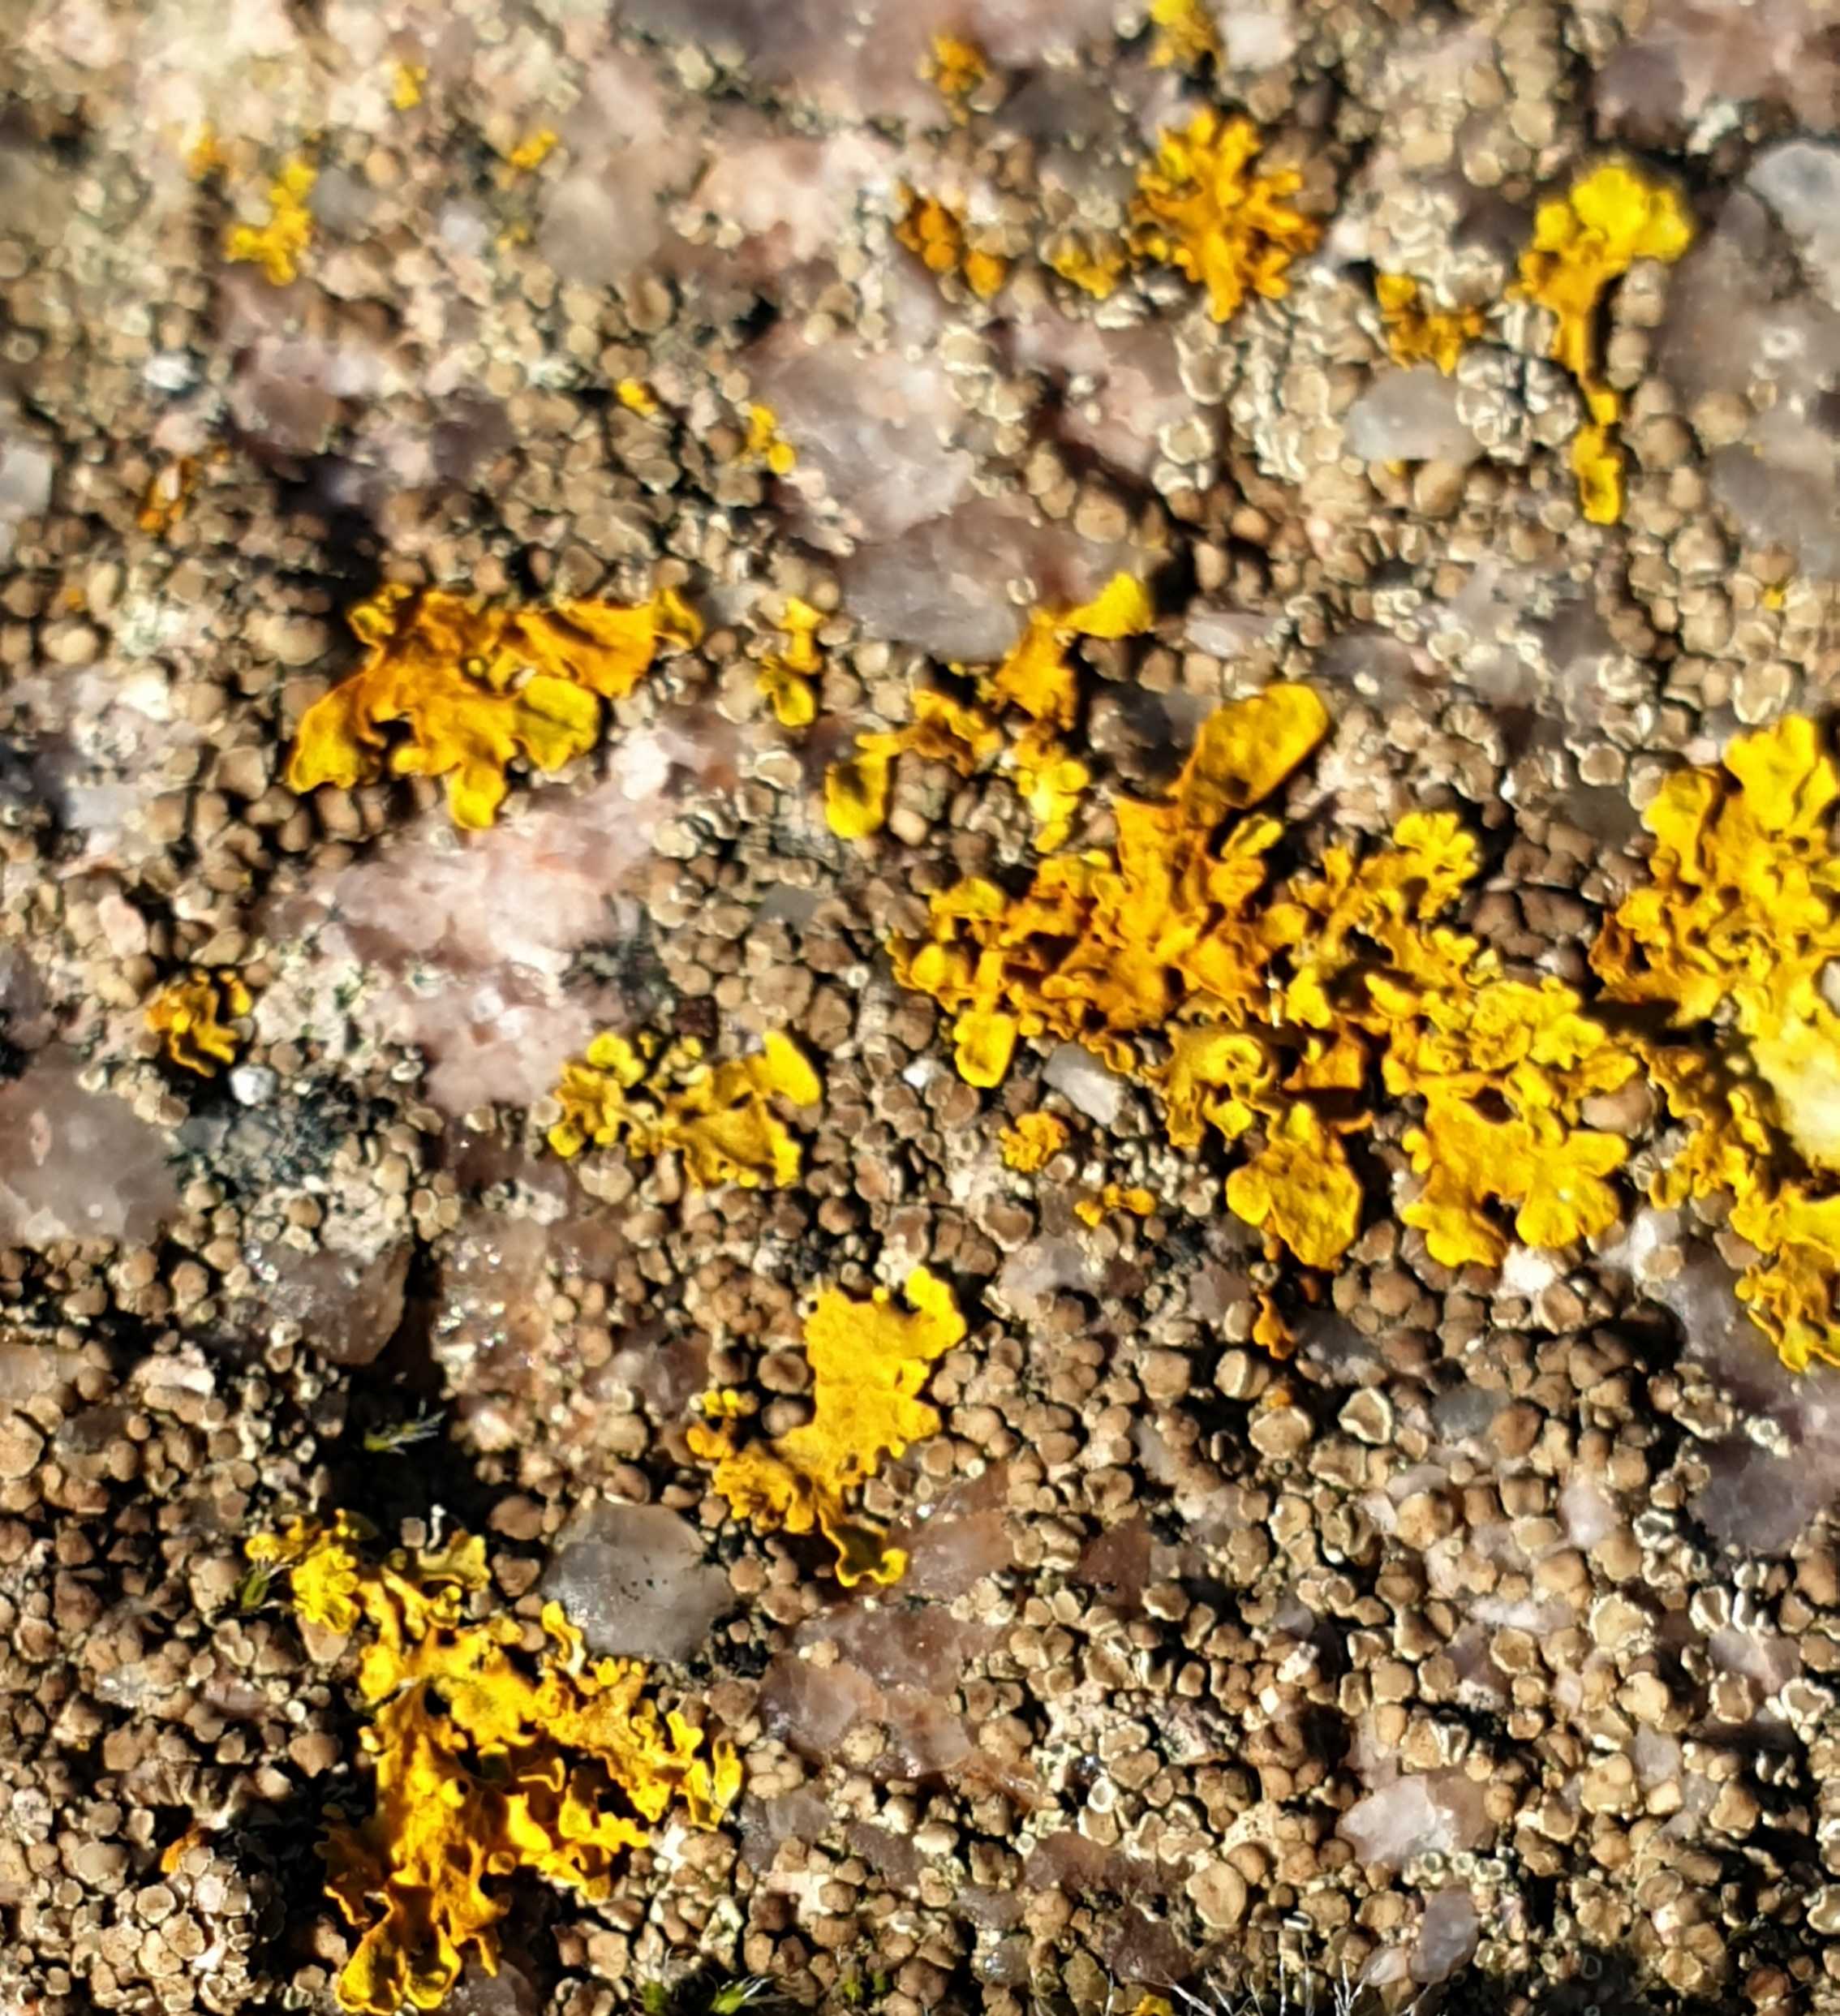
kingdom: Fungi
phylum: Ascomycota
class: Lecanoromycetes
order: Teloschistales
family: Teloschistaceae
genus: Xanthoria
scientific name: Xanthoria parietina
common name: almindelig væggelav
